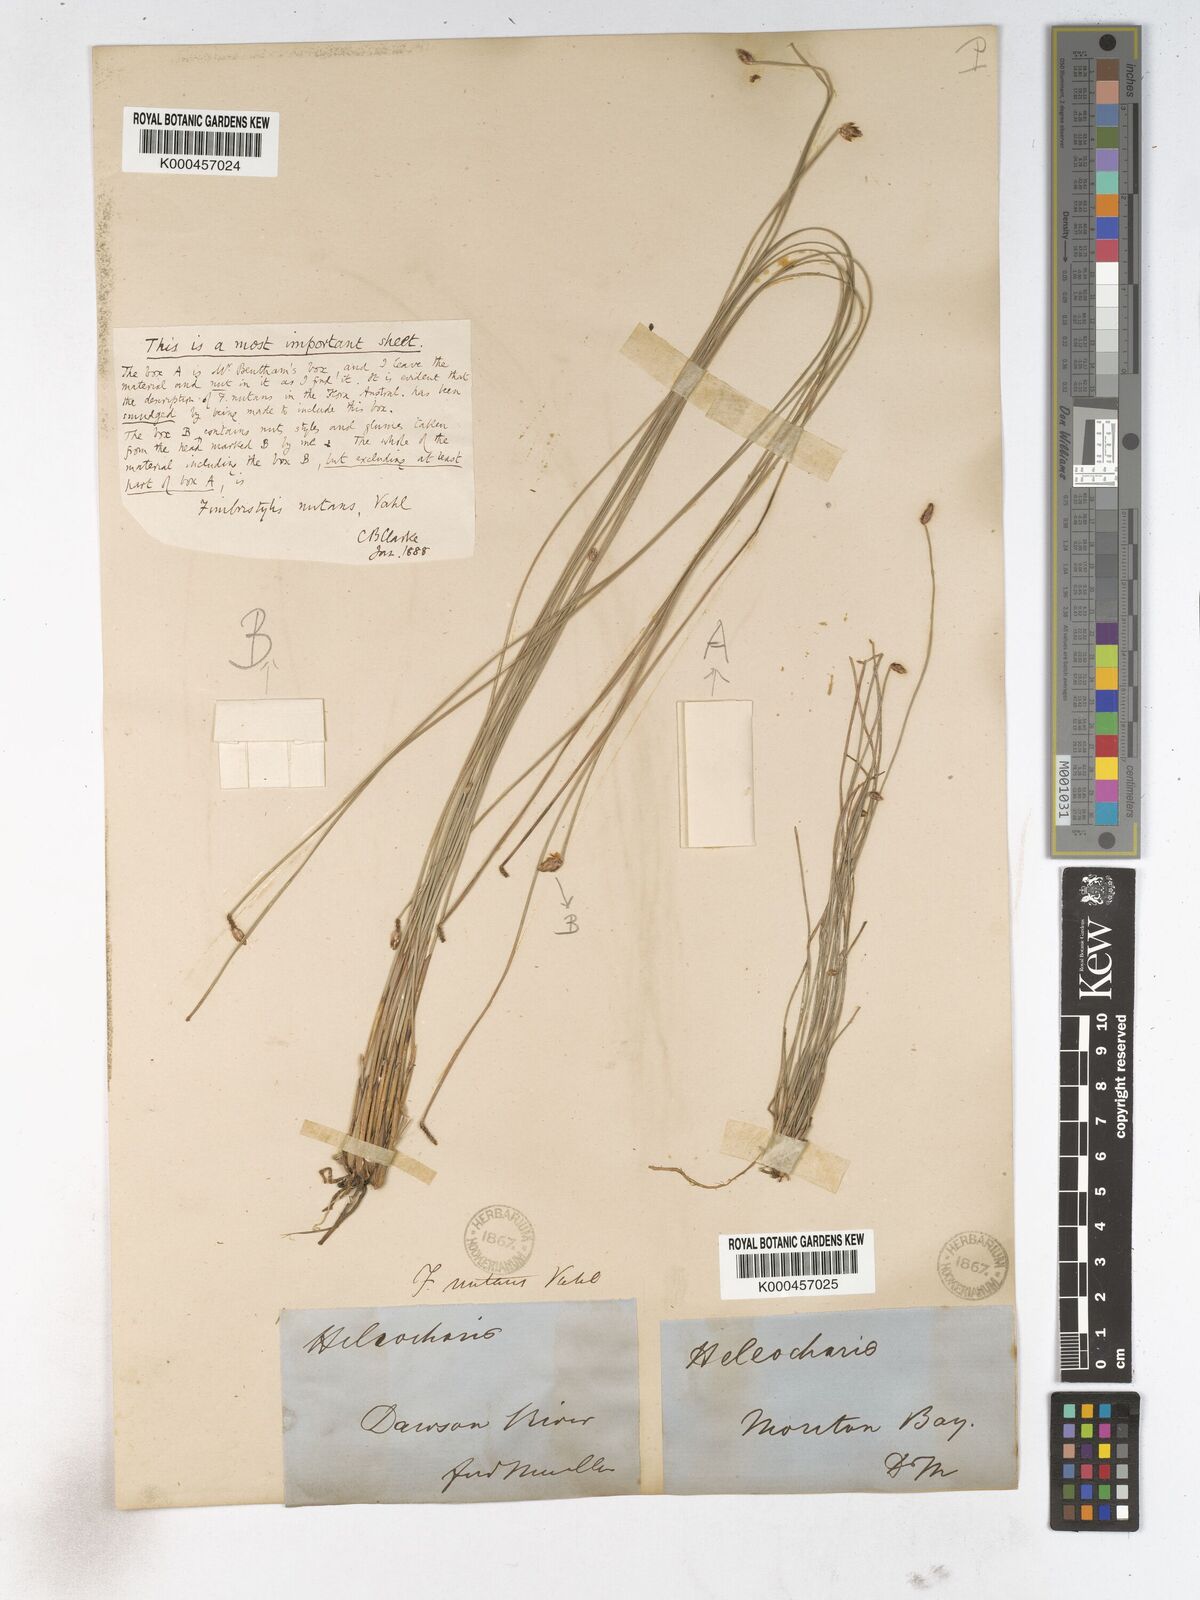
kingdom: Plantae
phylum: Tracheophyta
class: Liliopsida
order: Poales
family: Cyperaceae
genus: Fimbristylis
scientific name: Fimbristylis nutans
